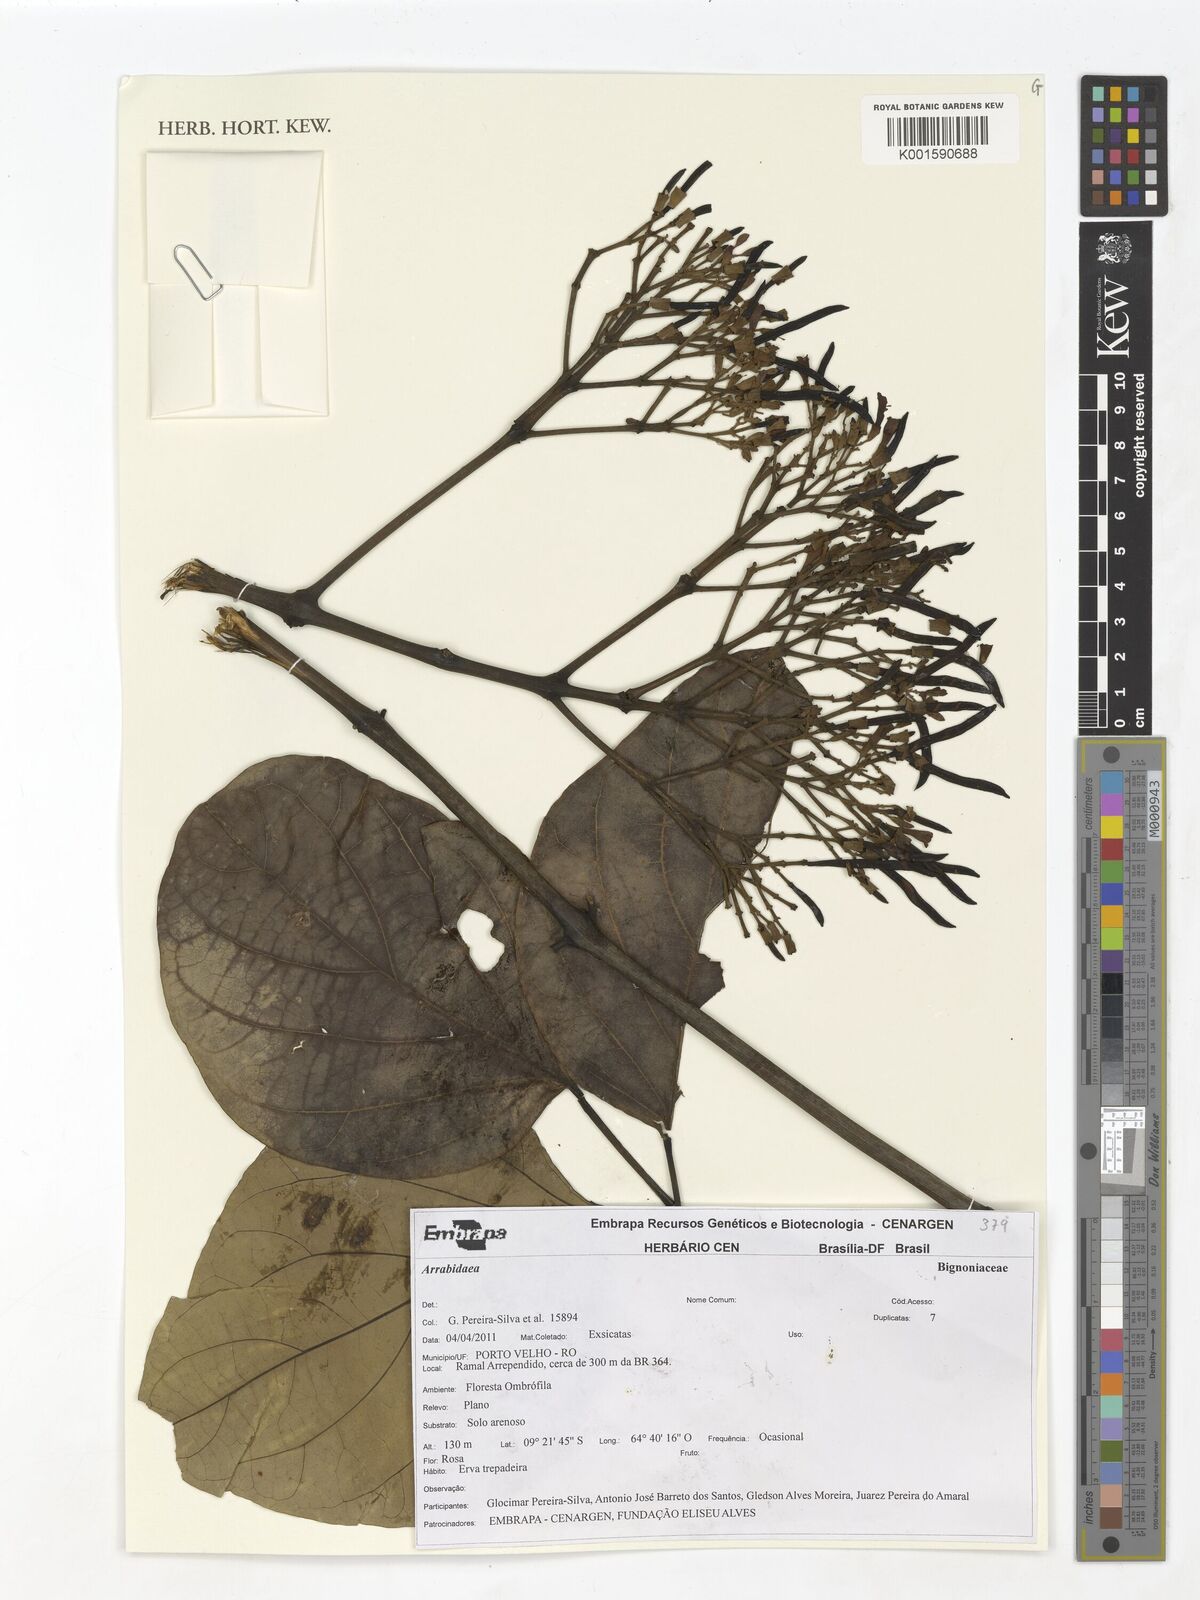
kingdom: Plantae
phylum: Tracheophyta
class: Magnoliopsida
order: Rosales
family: Rhamnaceae
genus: Arrabidaea
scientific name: Arrabidaea
